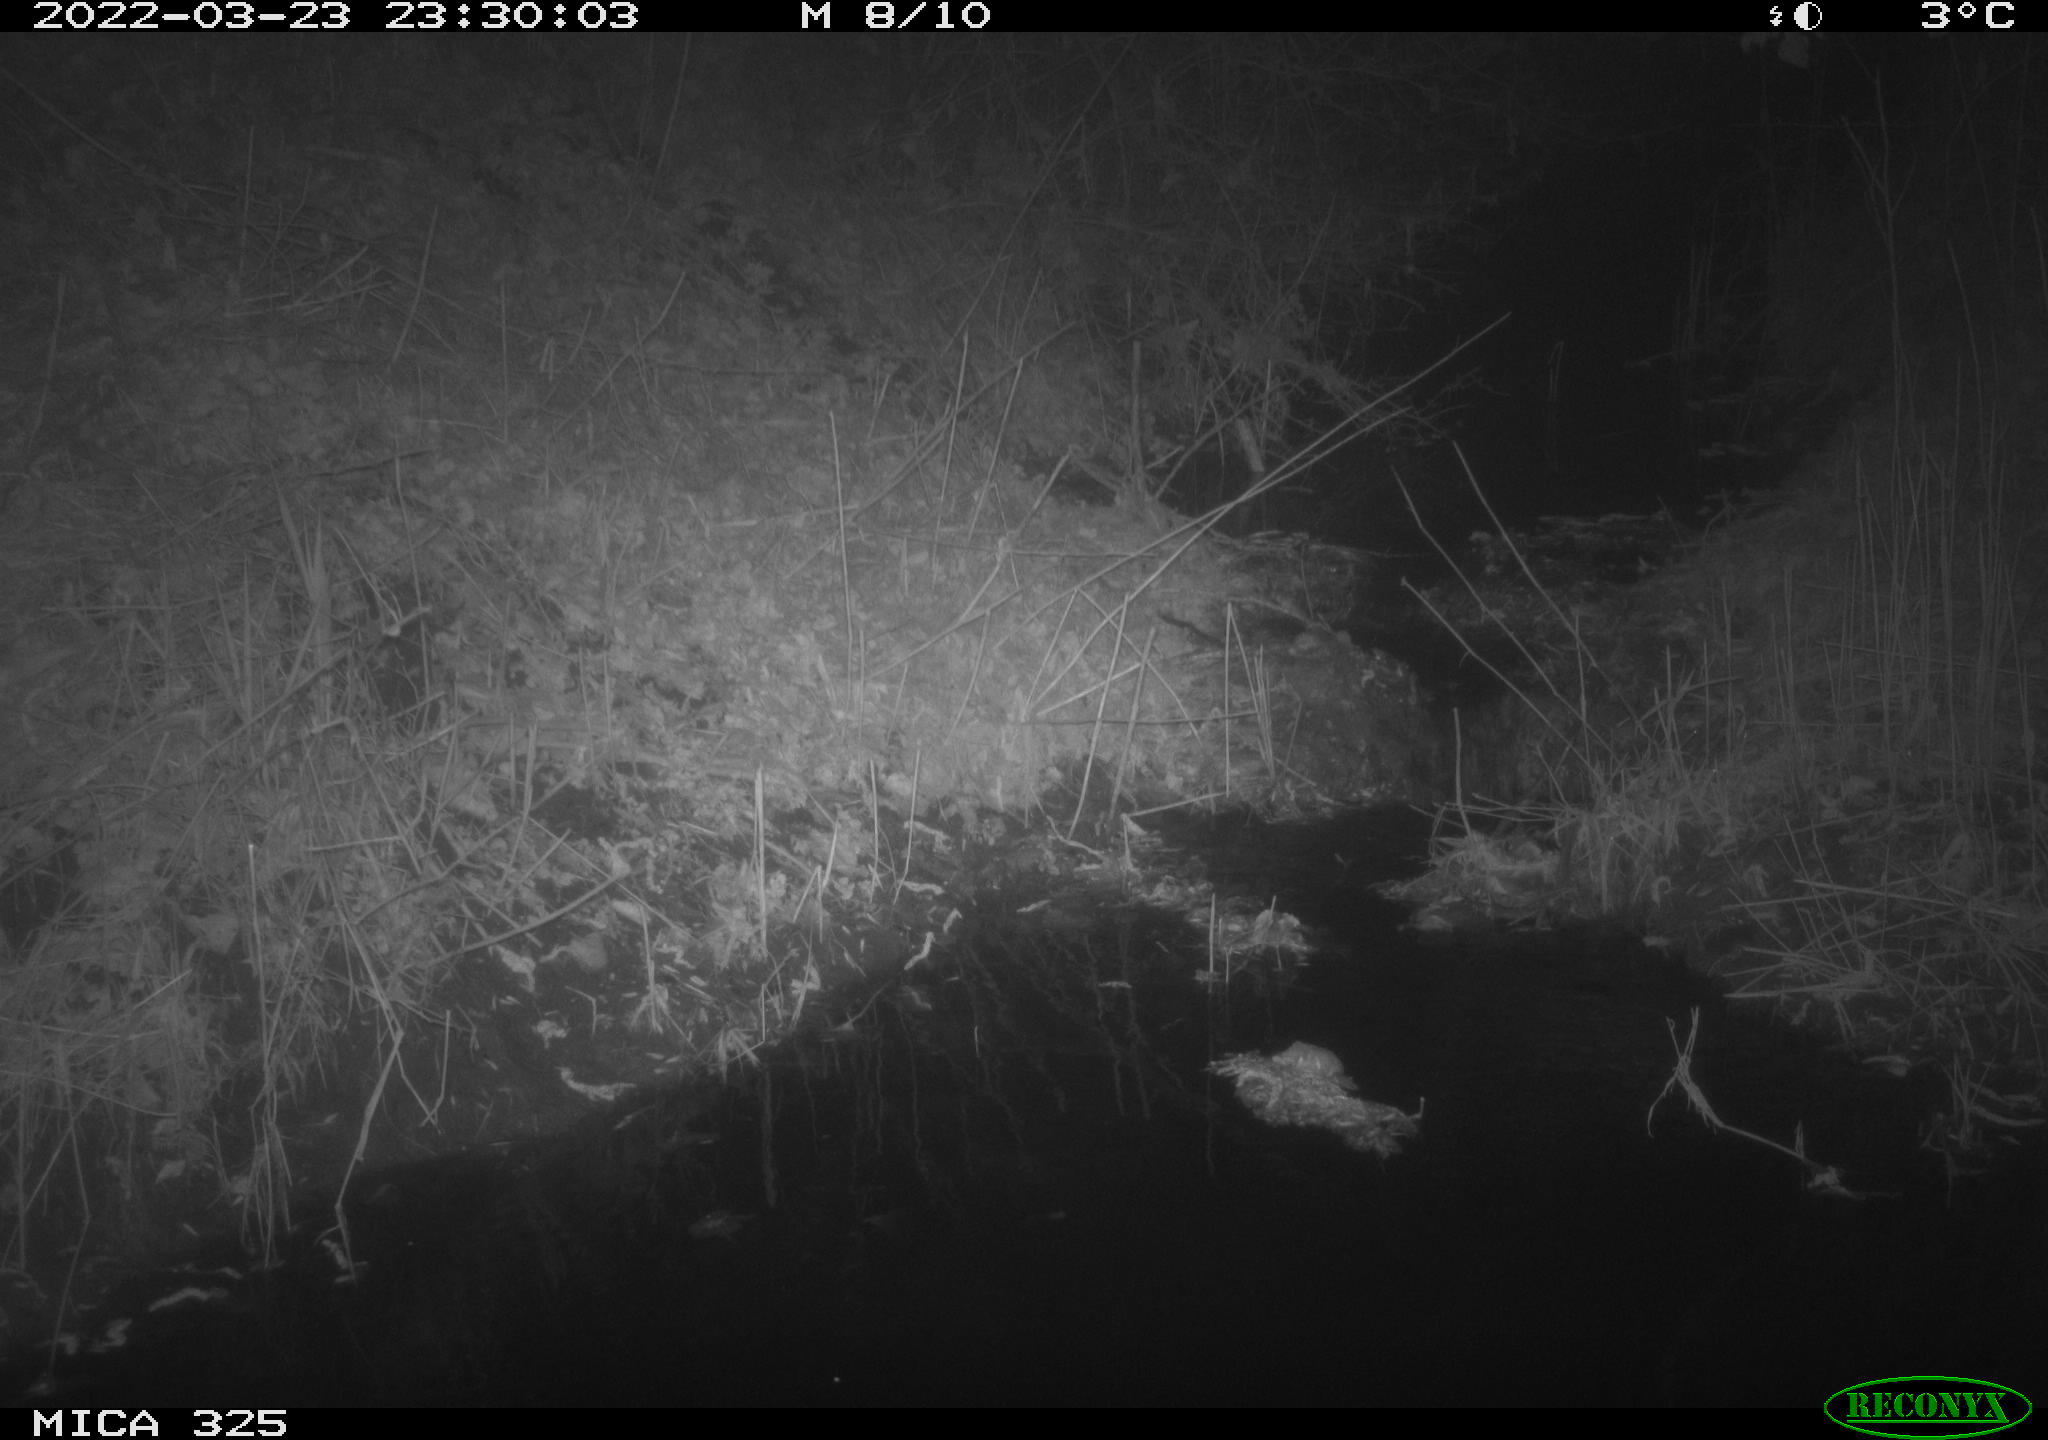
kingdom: Animalia
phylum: Chordata
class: Mammalia
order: Rodentia
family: Muridae
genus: Rattus
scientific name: Rattus norvegicus
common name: Brown rat
